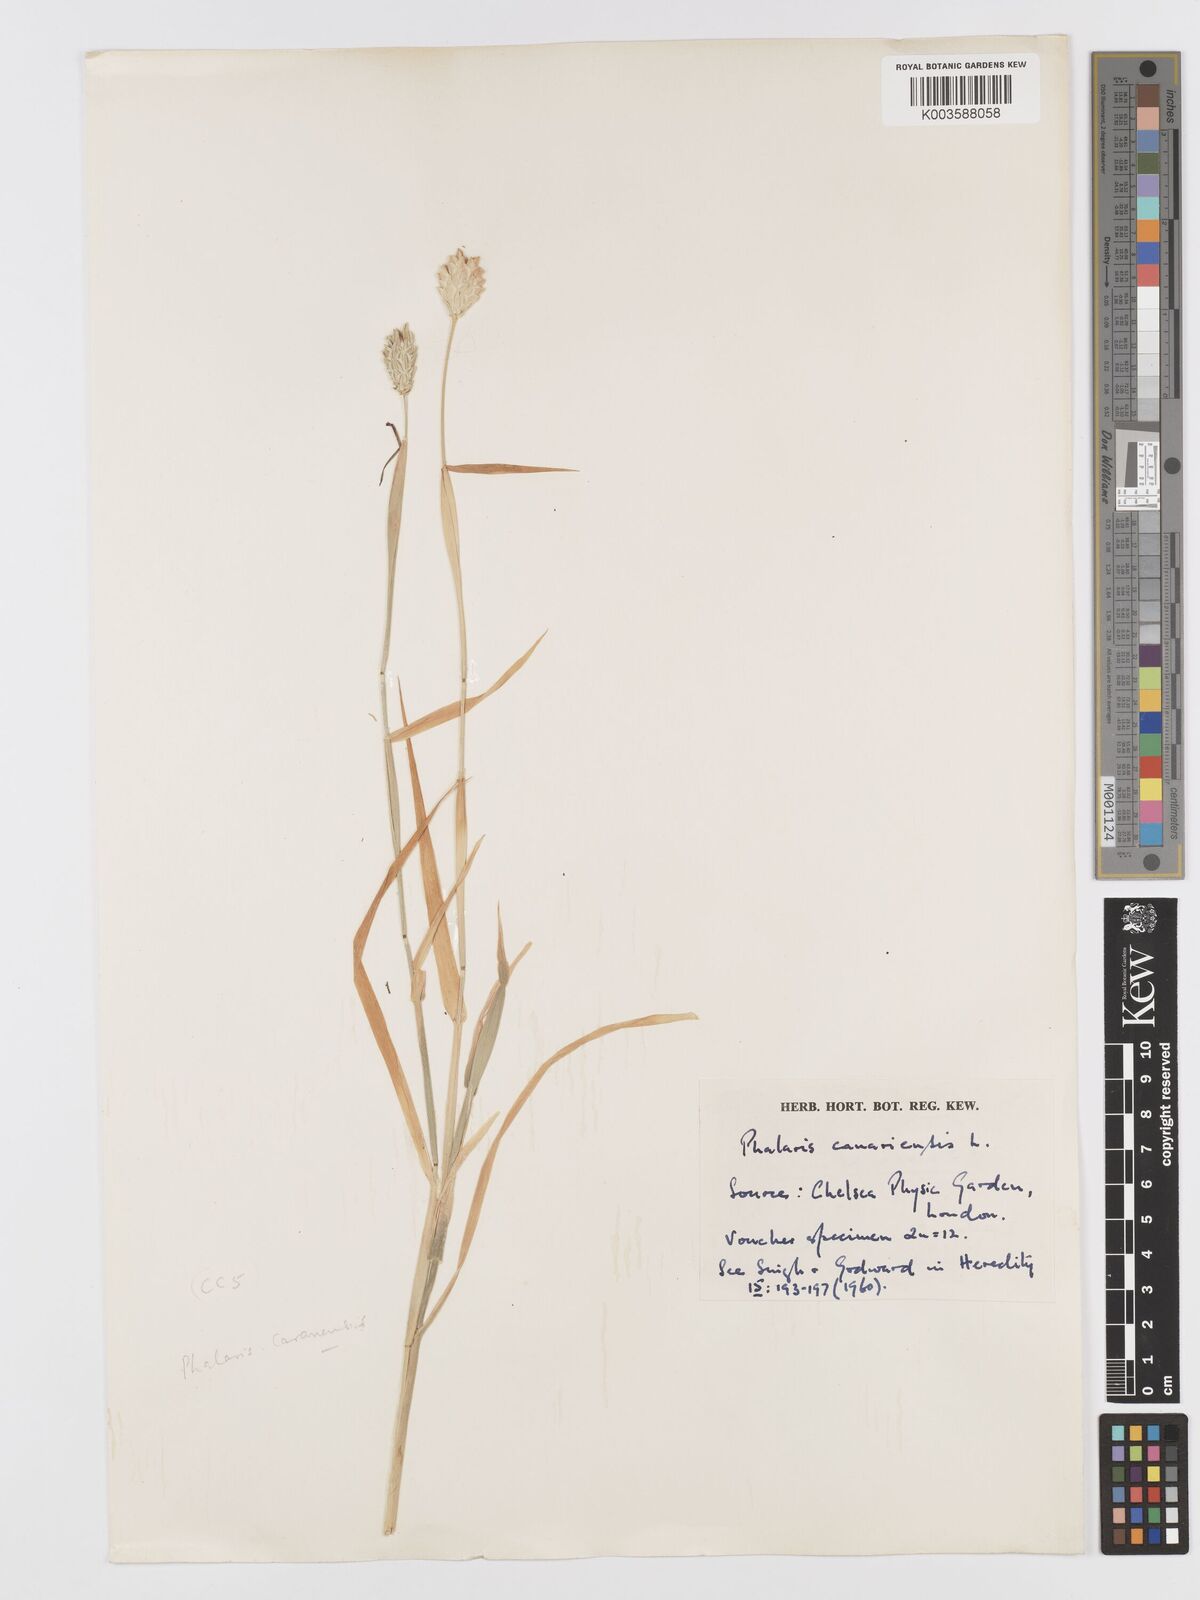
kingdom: Plantae
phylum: Tracheophyta
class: Liliopsida
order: Poales
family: Poaceae
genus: Phalaris
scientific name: Phalaris canariensis
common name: Annual canarygrass
